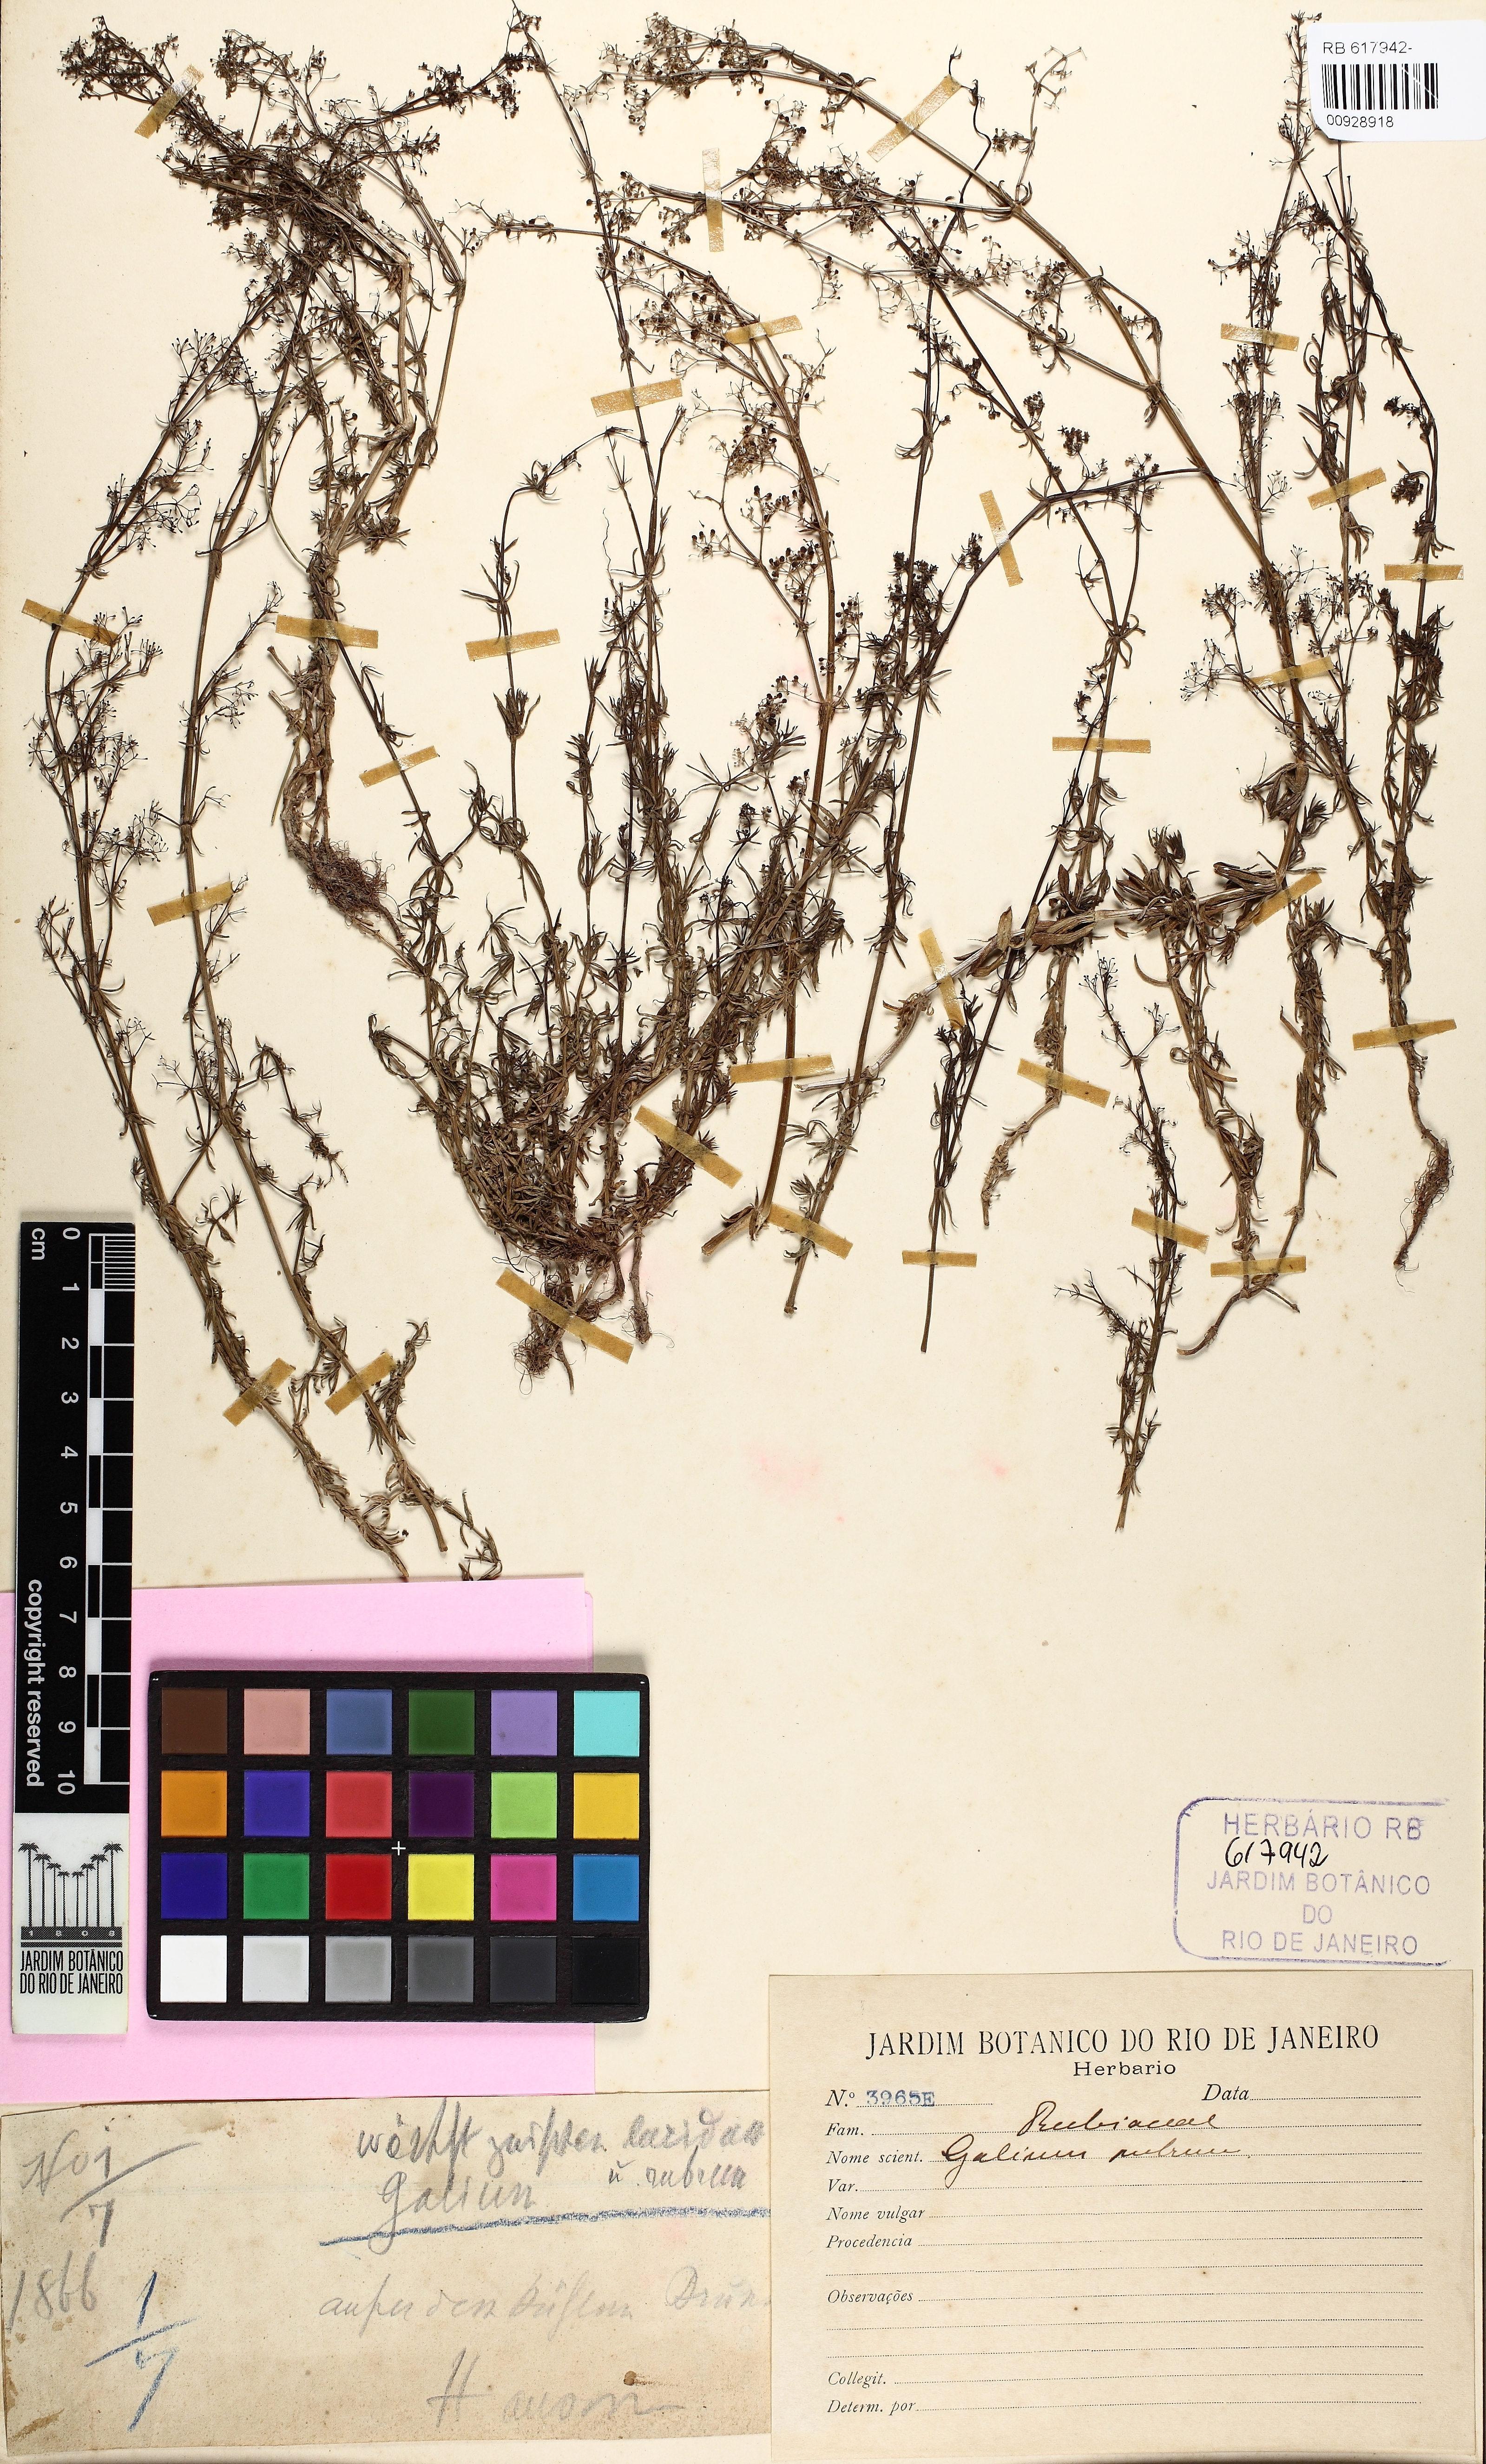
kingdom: Plantae
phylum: Tracheophyta
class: Magnoliopsida
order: Gentianales
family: Rubiaceae
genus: Galium
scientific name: Galium rubrum
